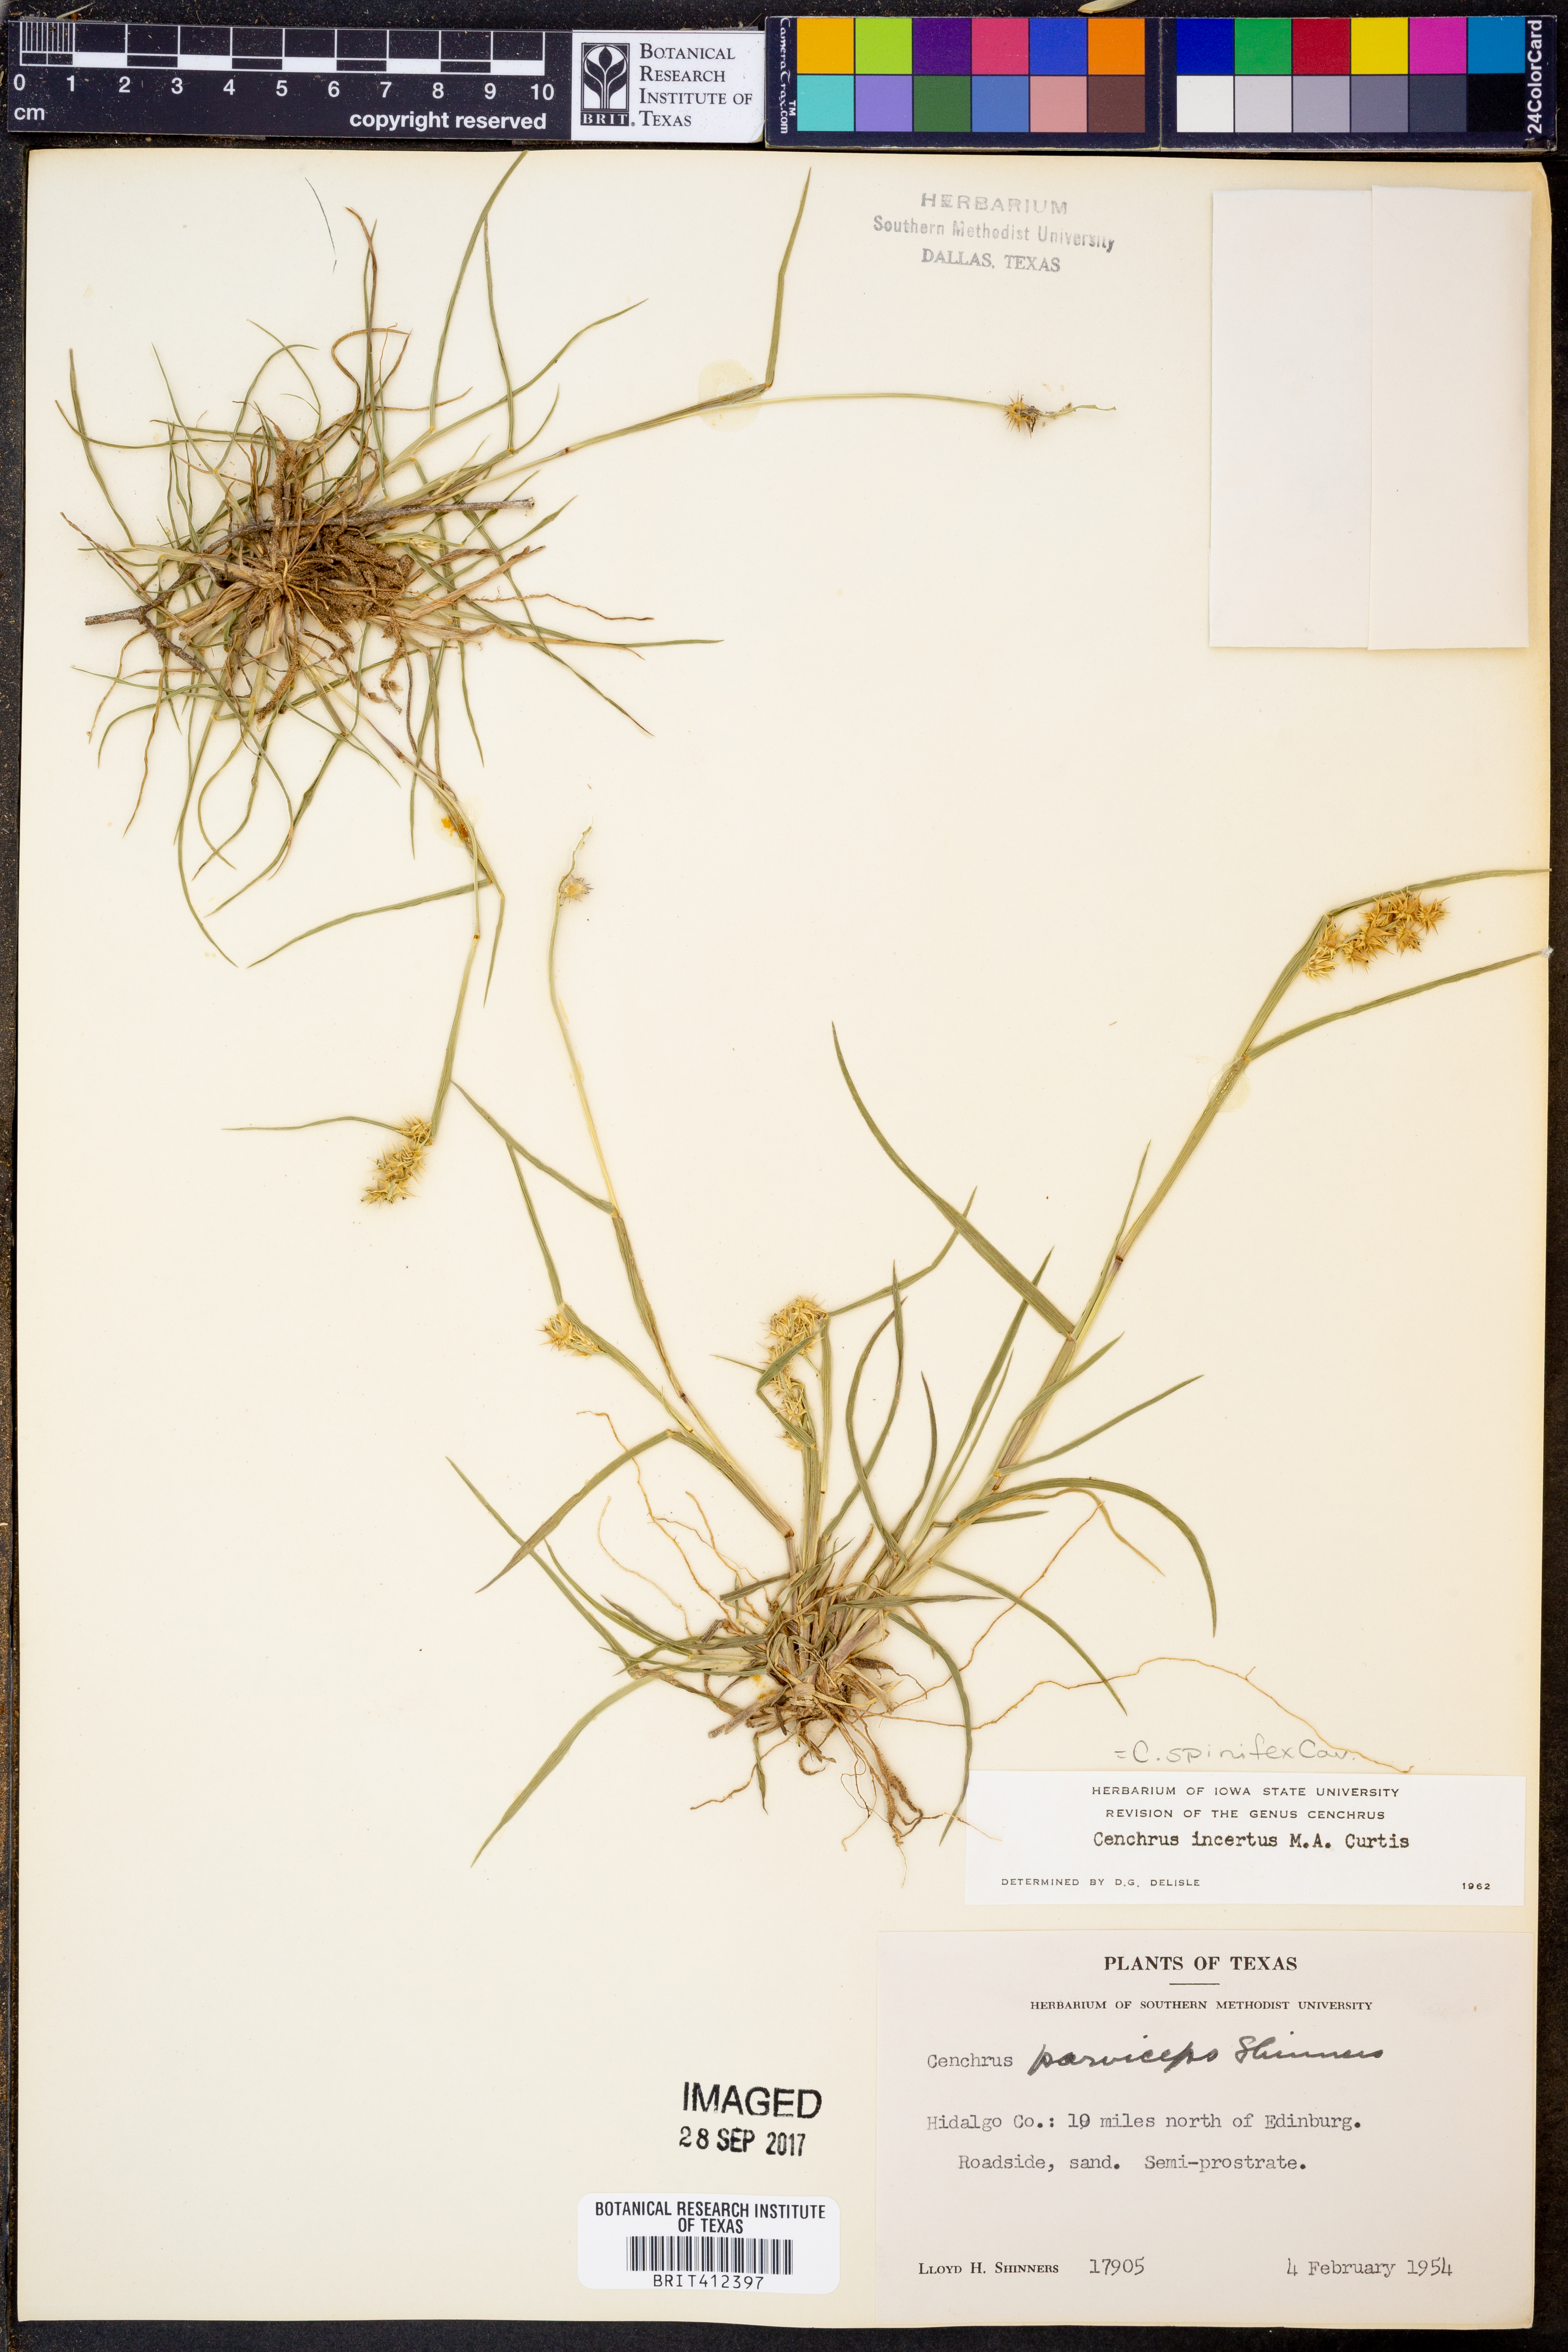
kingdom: Plantae
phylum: Tracheophyta
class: Liliopsida
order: Poales
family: Poaceae
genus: Cenchrus
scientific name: Cenchrus spinifex
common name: Coast sandbur
